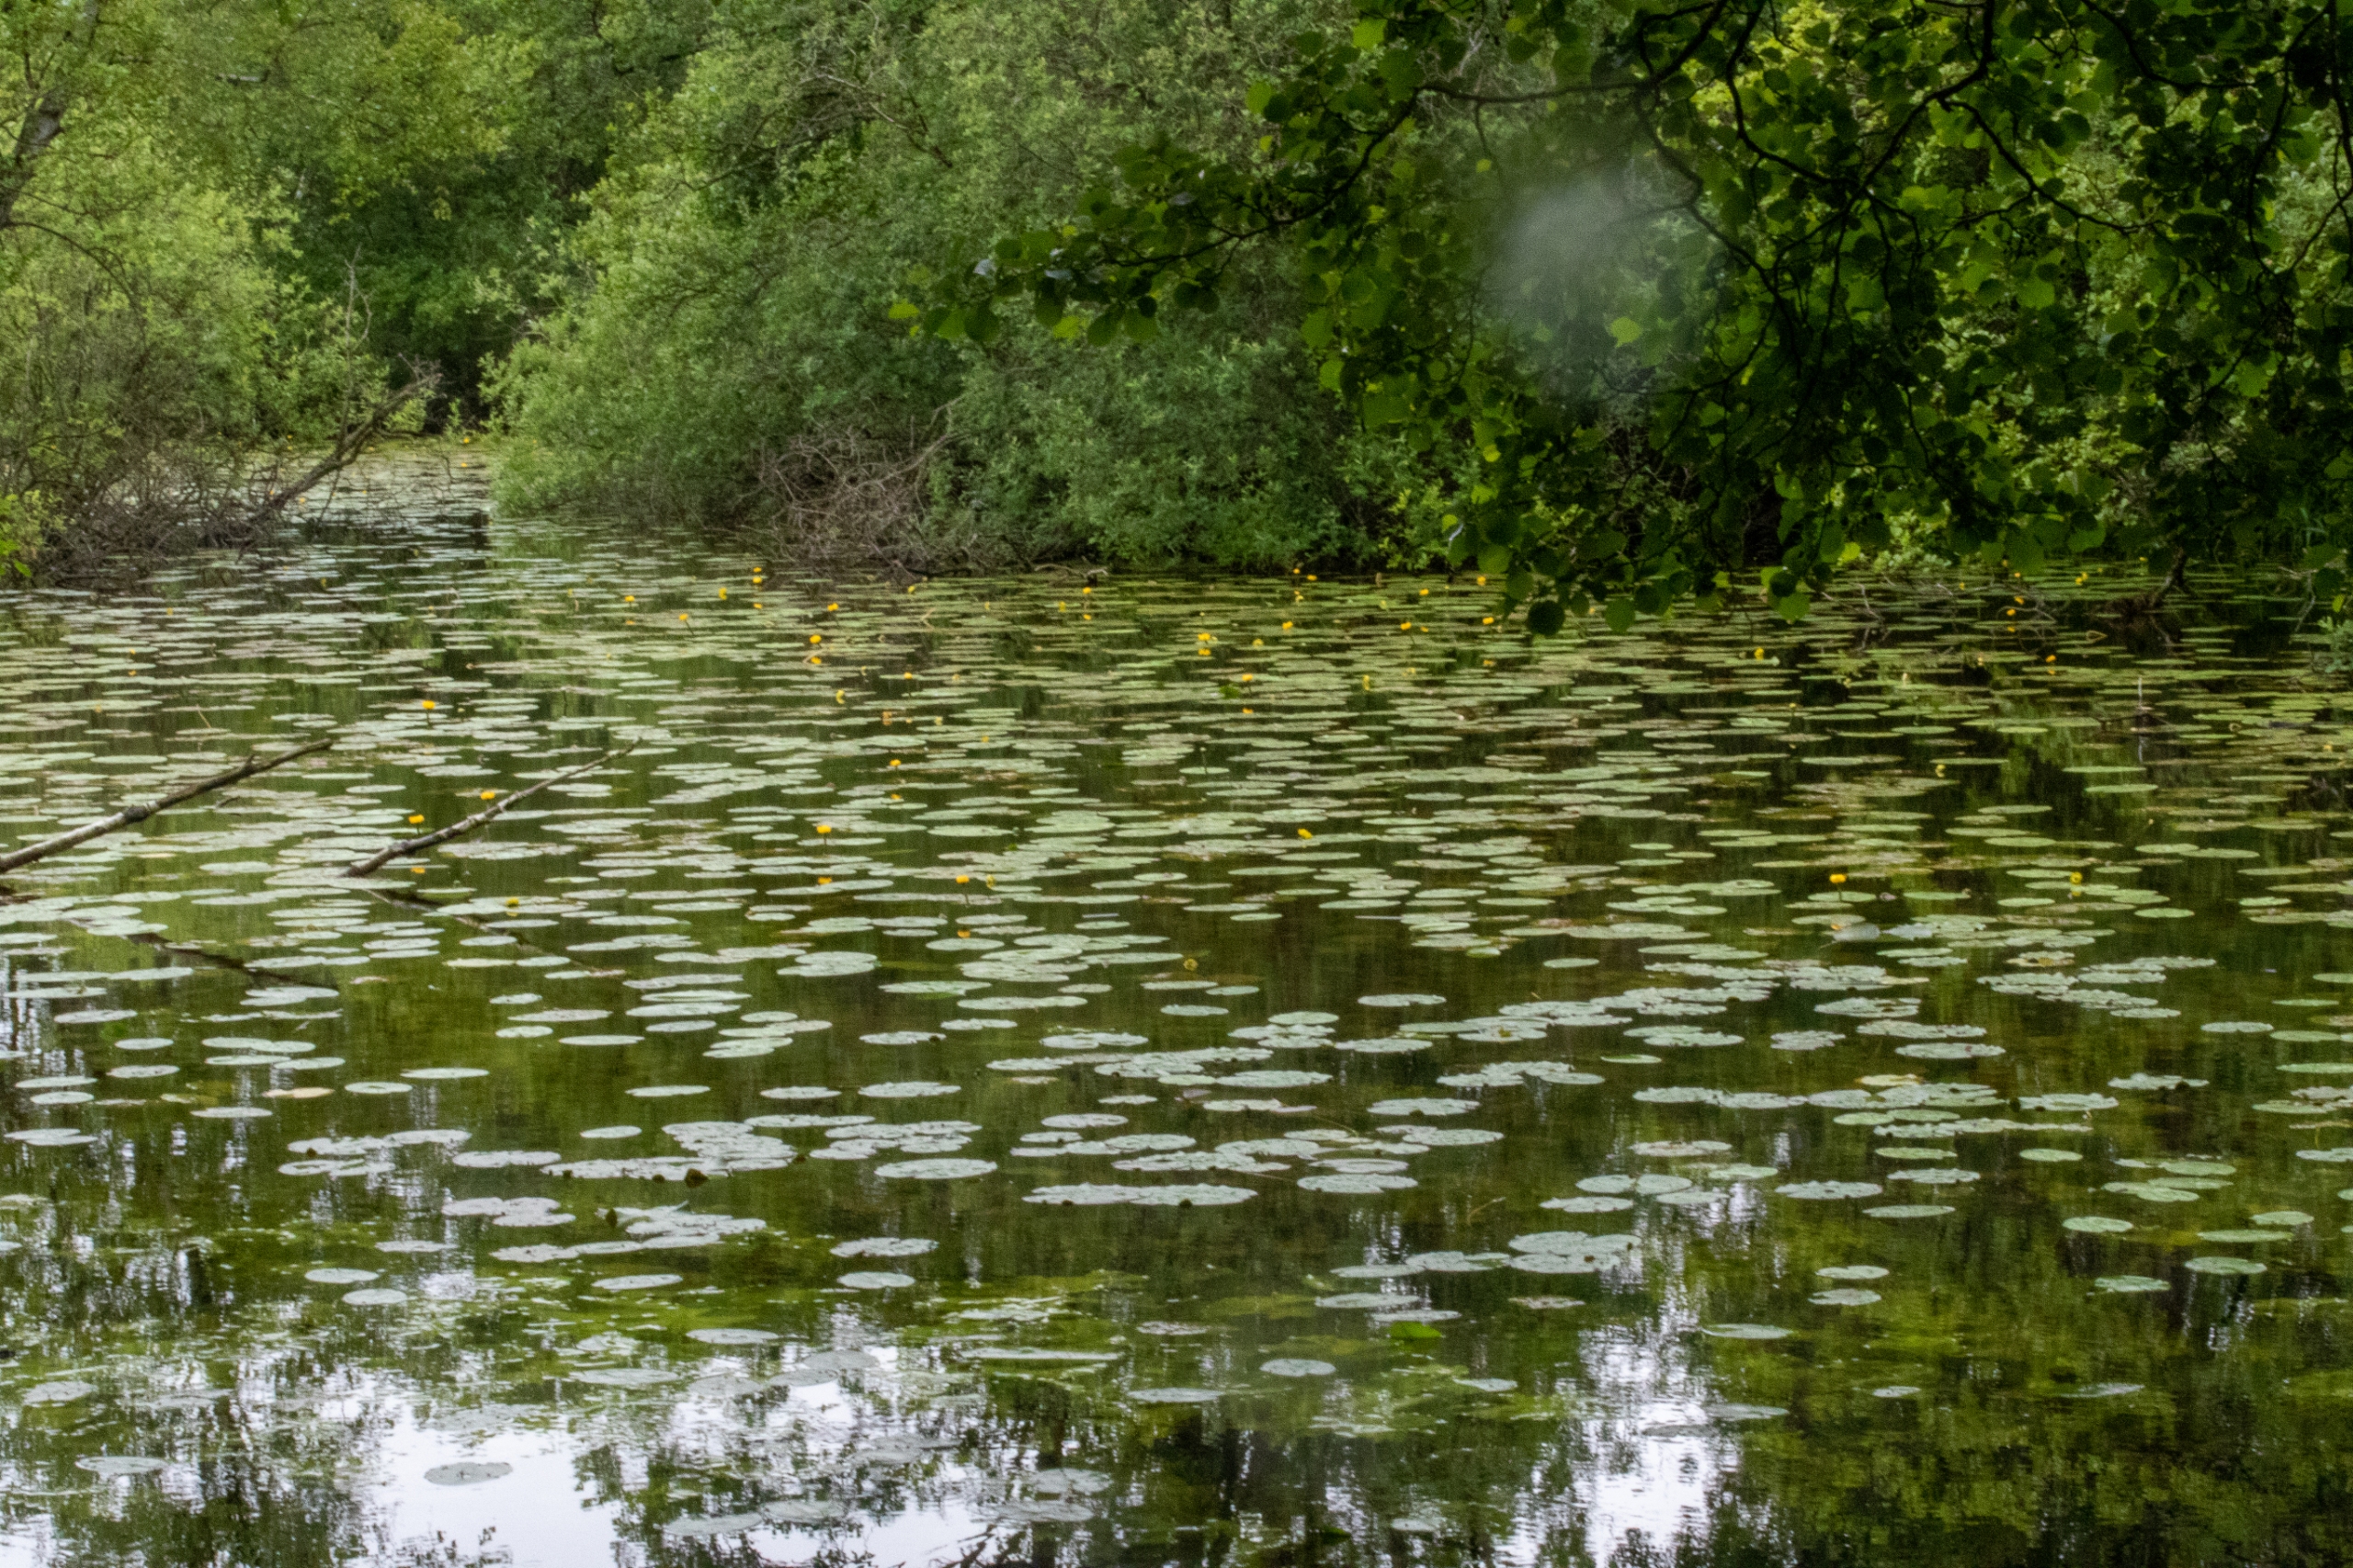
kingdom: Plantae
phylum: Tracheophyta
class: Magnoliopsida
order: Nymphaeales
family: Nymphaeaceae
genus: Nuphar
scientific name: Nuphar lutea
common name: Gul åkande
